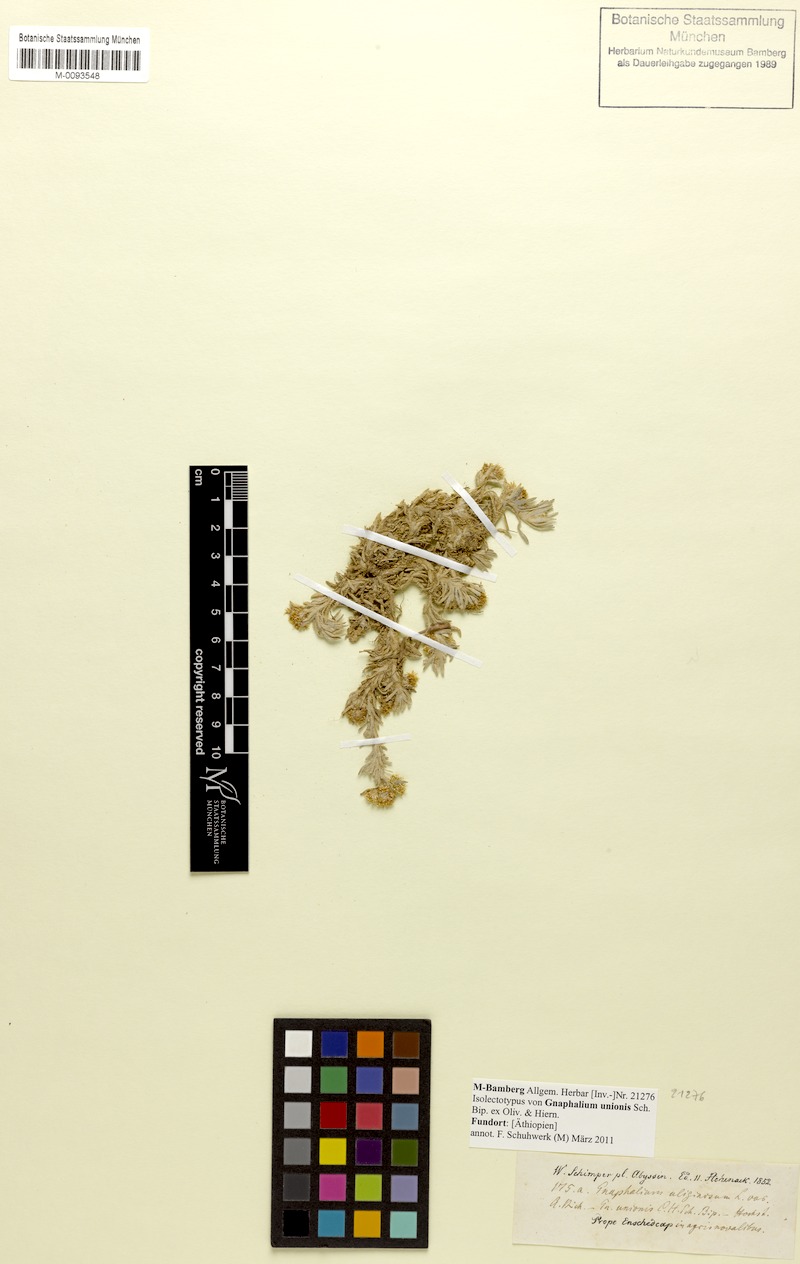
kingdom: Plantae
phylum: Tracheophyta
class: Magnoliopsida
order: Asterales
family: Asteraceae
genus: Gnaphalium
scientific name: Gnaphalium unionis
